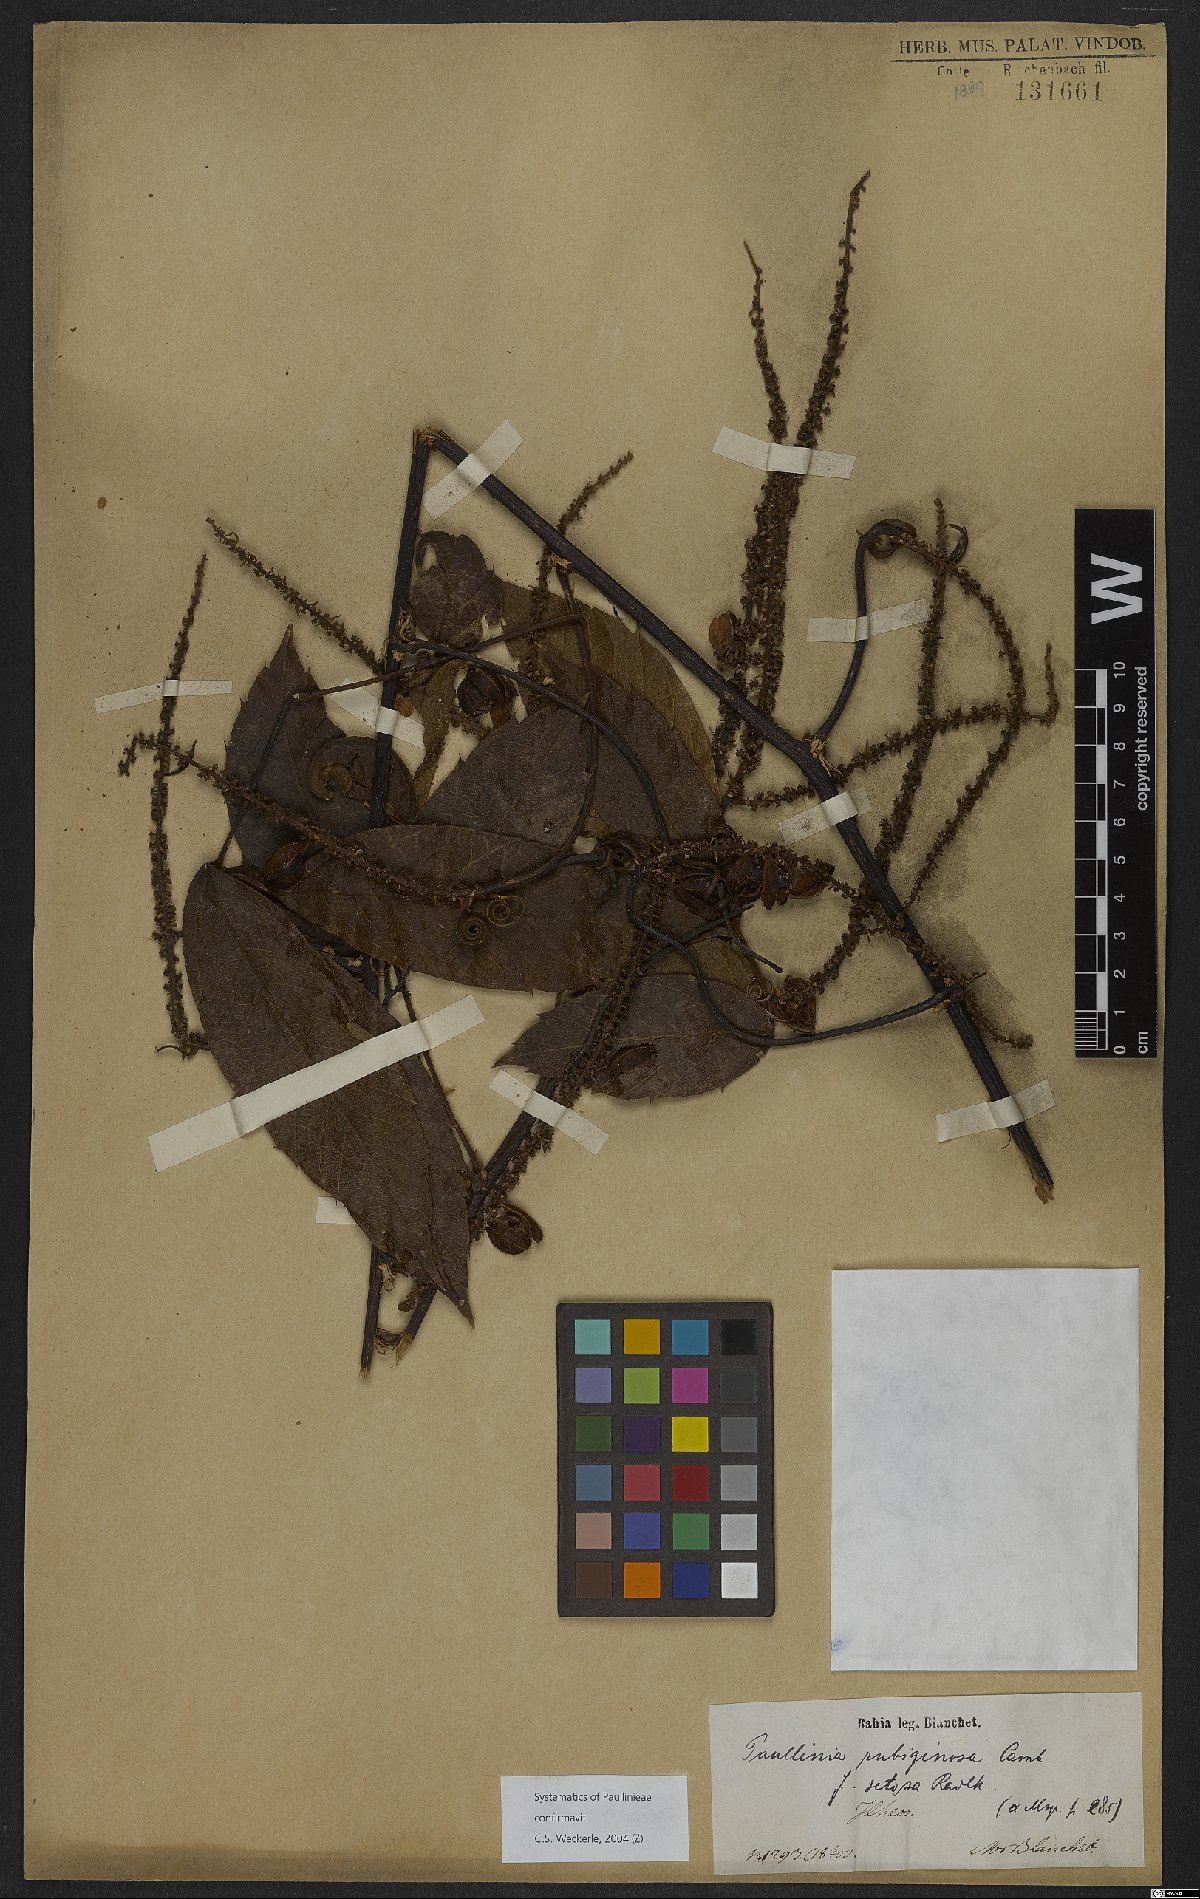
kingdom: Plantae
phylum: Tracheophyta
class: Magnoliopsida
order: Sapindales
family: Sapindaceae
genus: Paullinia
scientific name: Paullinia rubiginosa
